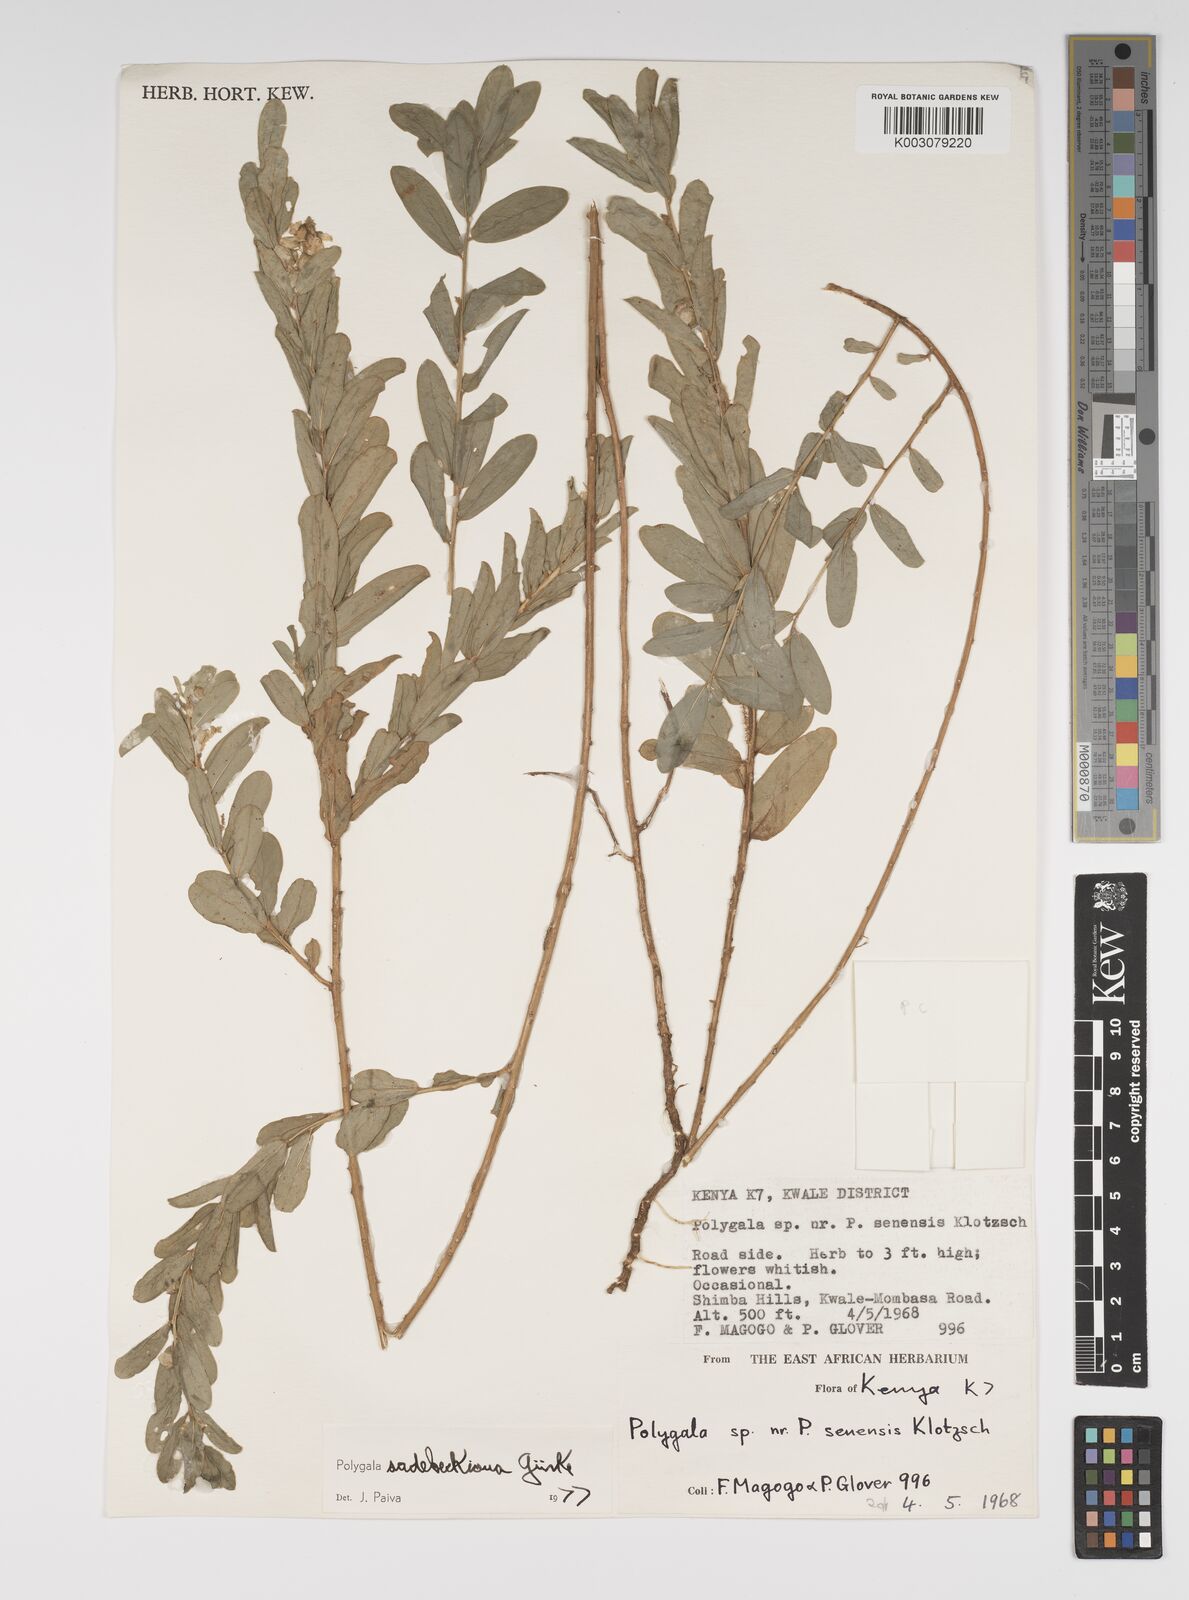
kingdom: Plantae
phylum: Tracheophyta
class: Magnoliopsida
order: Fabales
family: Polygalaceae
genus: Polygala
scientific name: Polygala sadebeckiana
